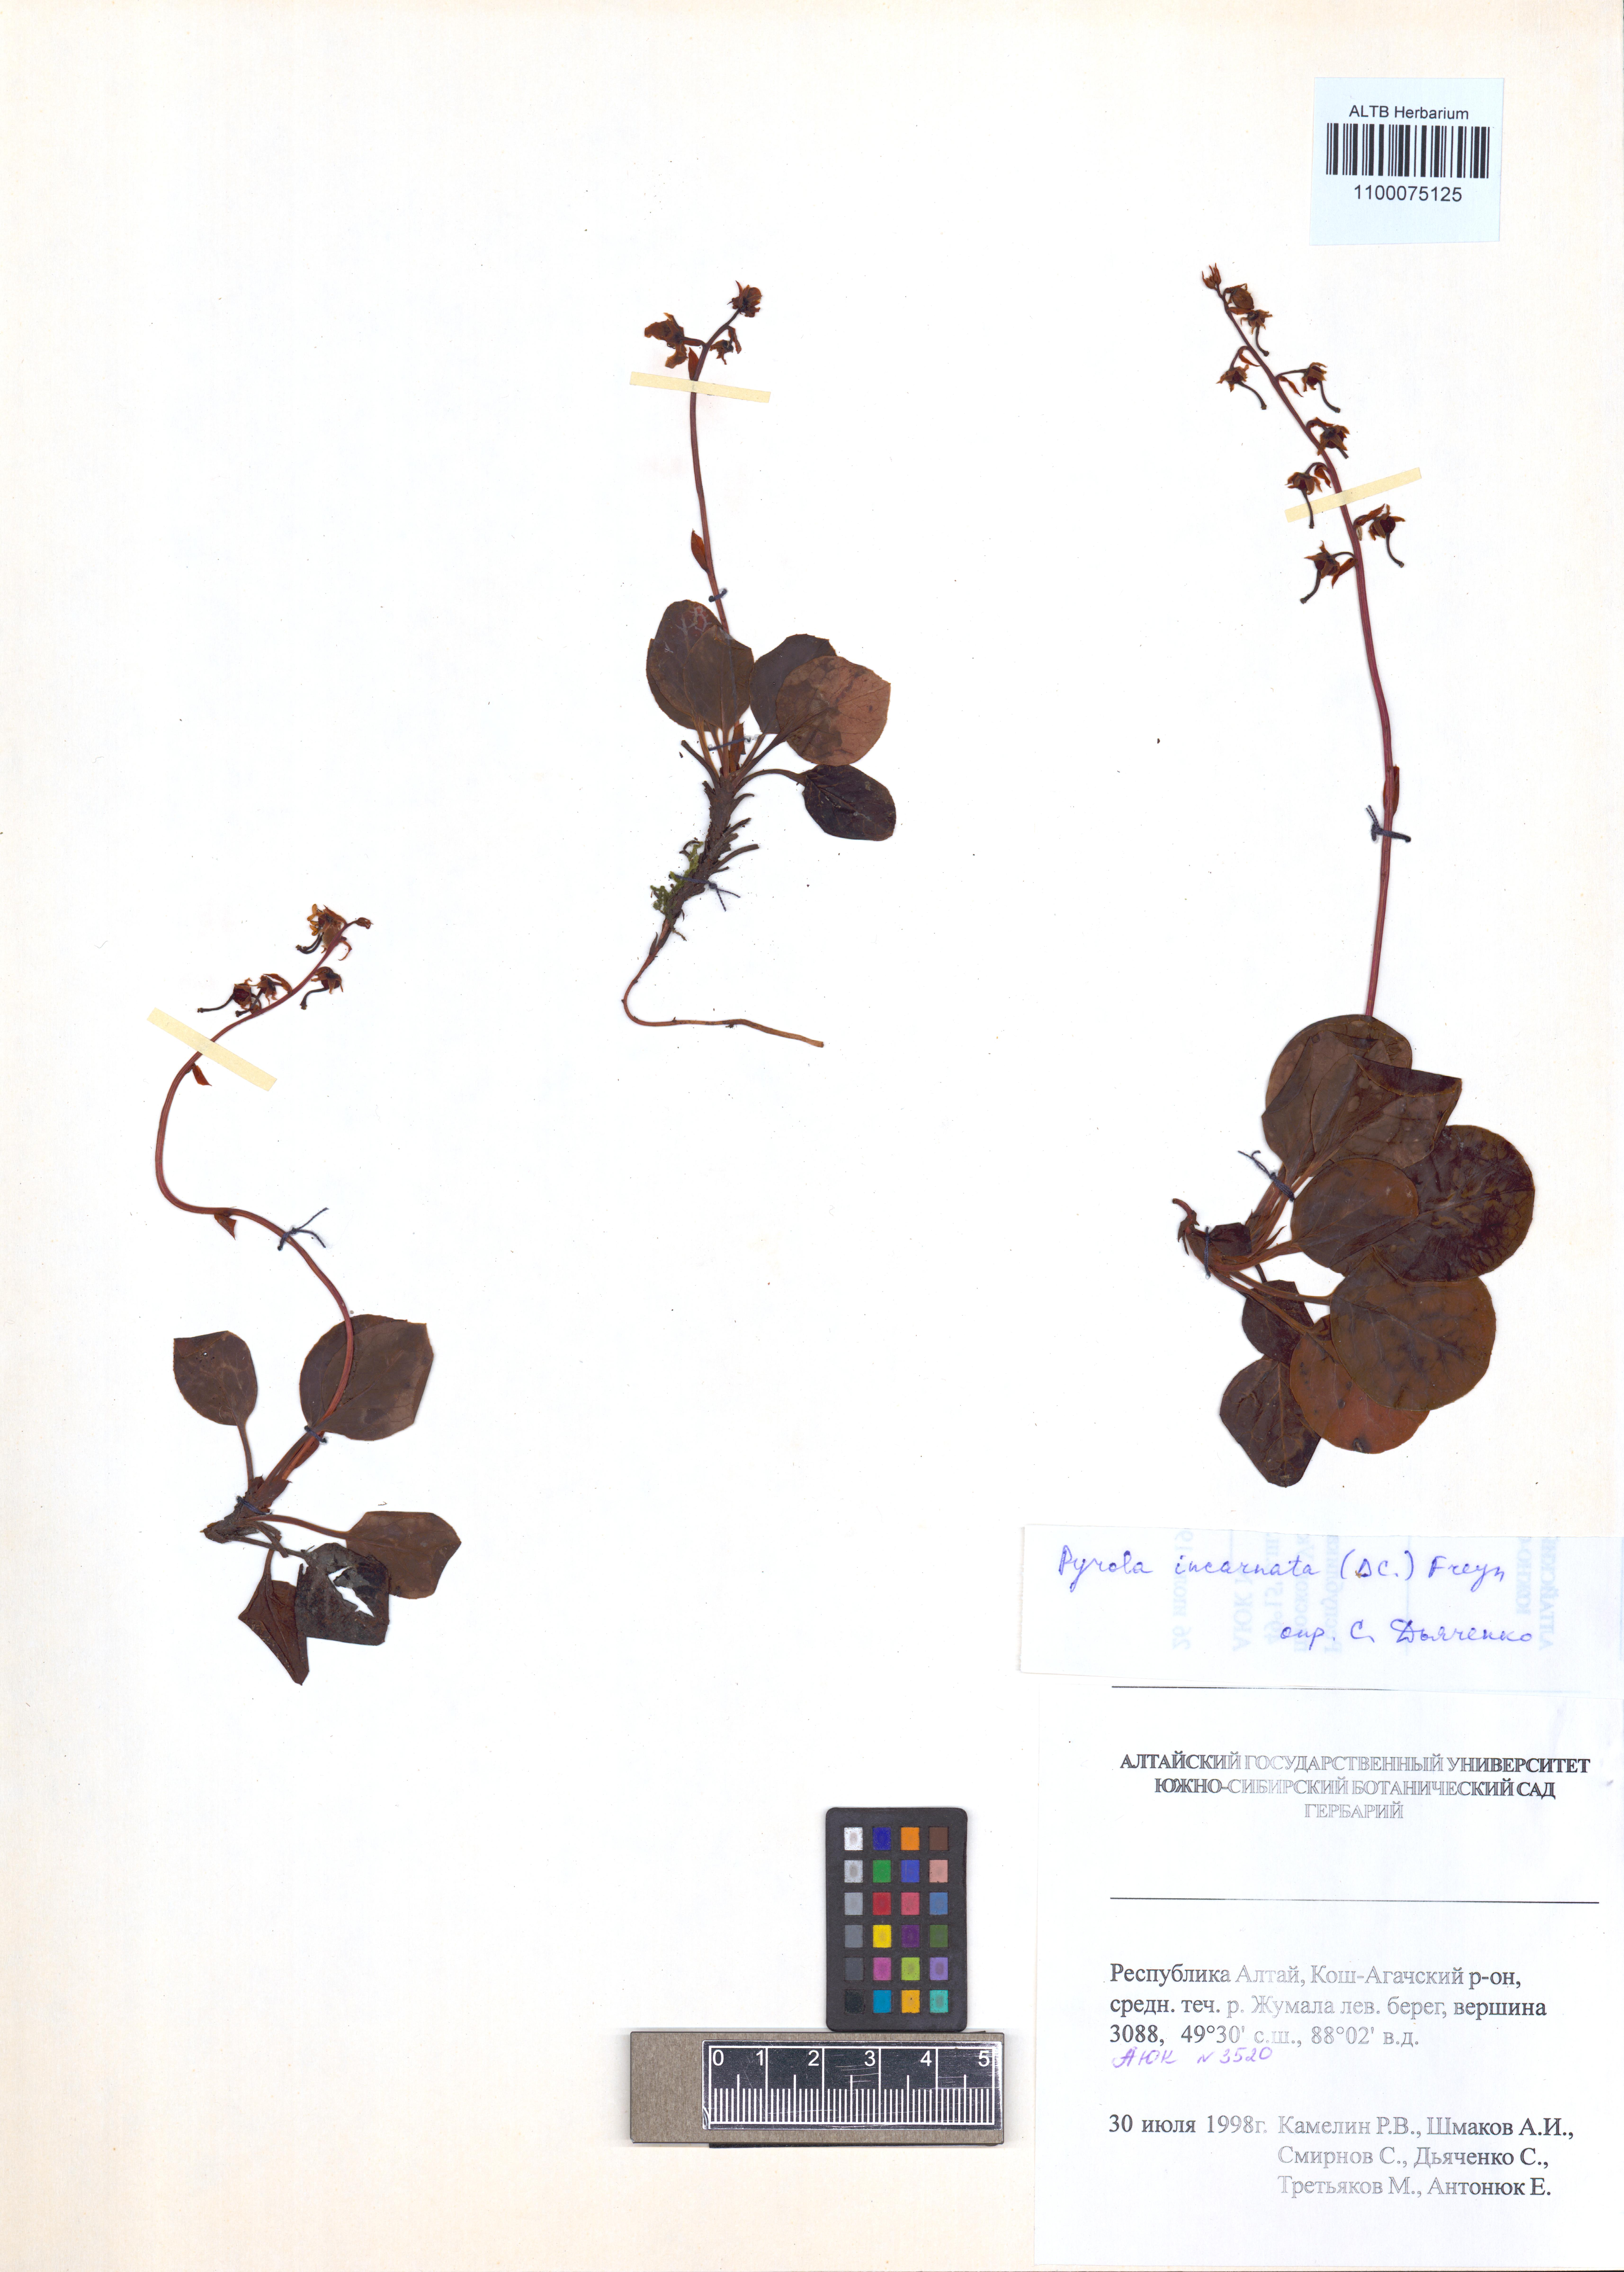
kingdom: Plantae
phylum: Tracheophyta
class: Magnoliopsida
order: Ericales
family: Ericaceae
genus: Pyrola
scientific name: Pyrola asarifolia
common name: Bog wintergreen
